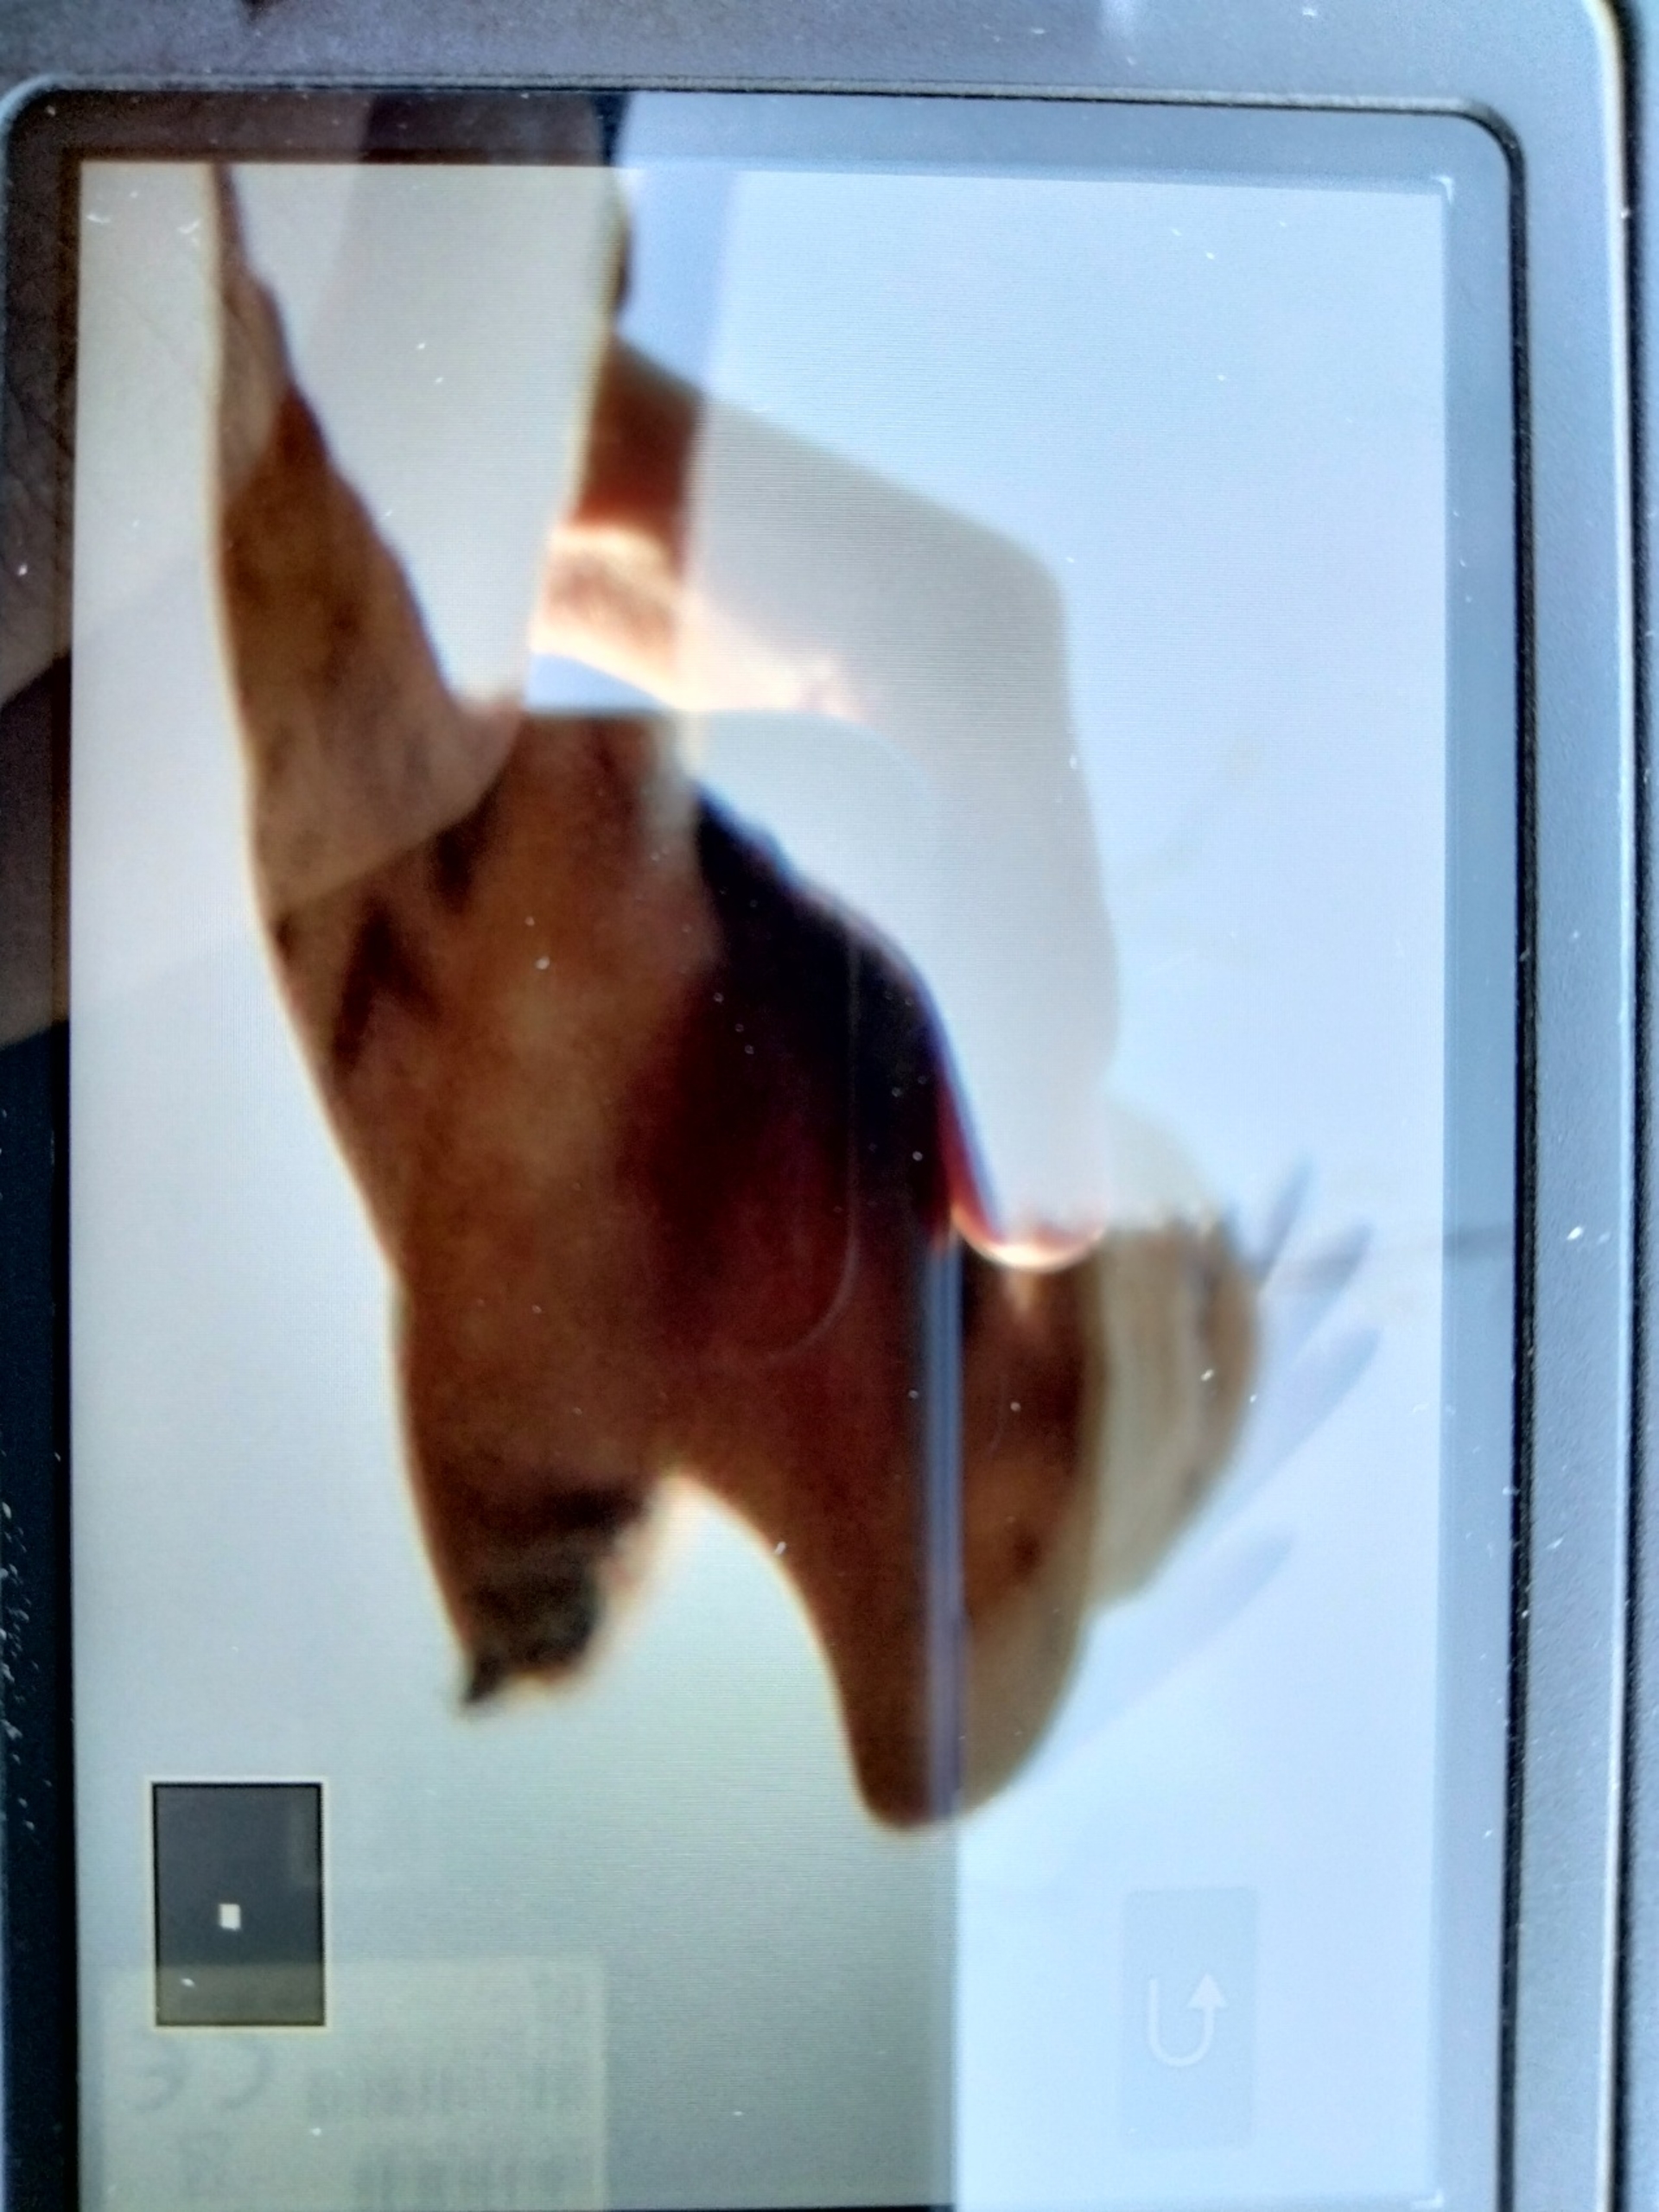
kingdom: Animalia
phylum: Chordata
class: Aves
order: Accipitriformes
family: Accipitridae
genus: Circus
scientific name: Circus macrourus
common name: Steppehøg
